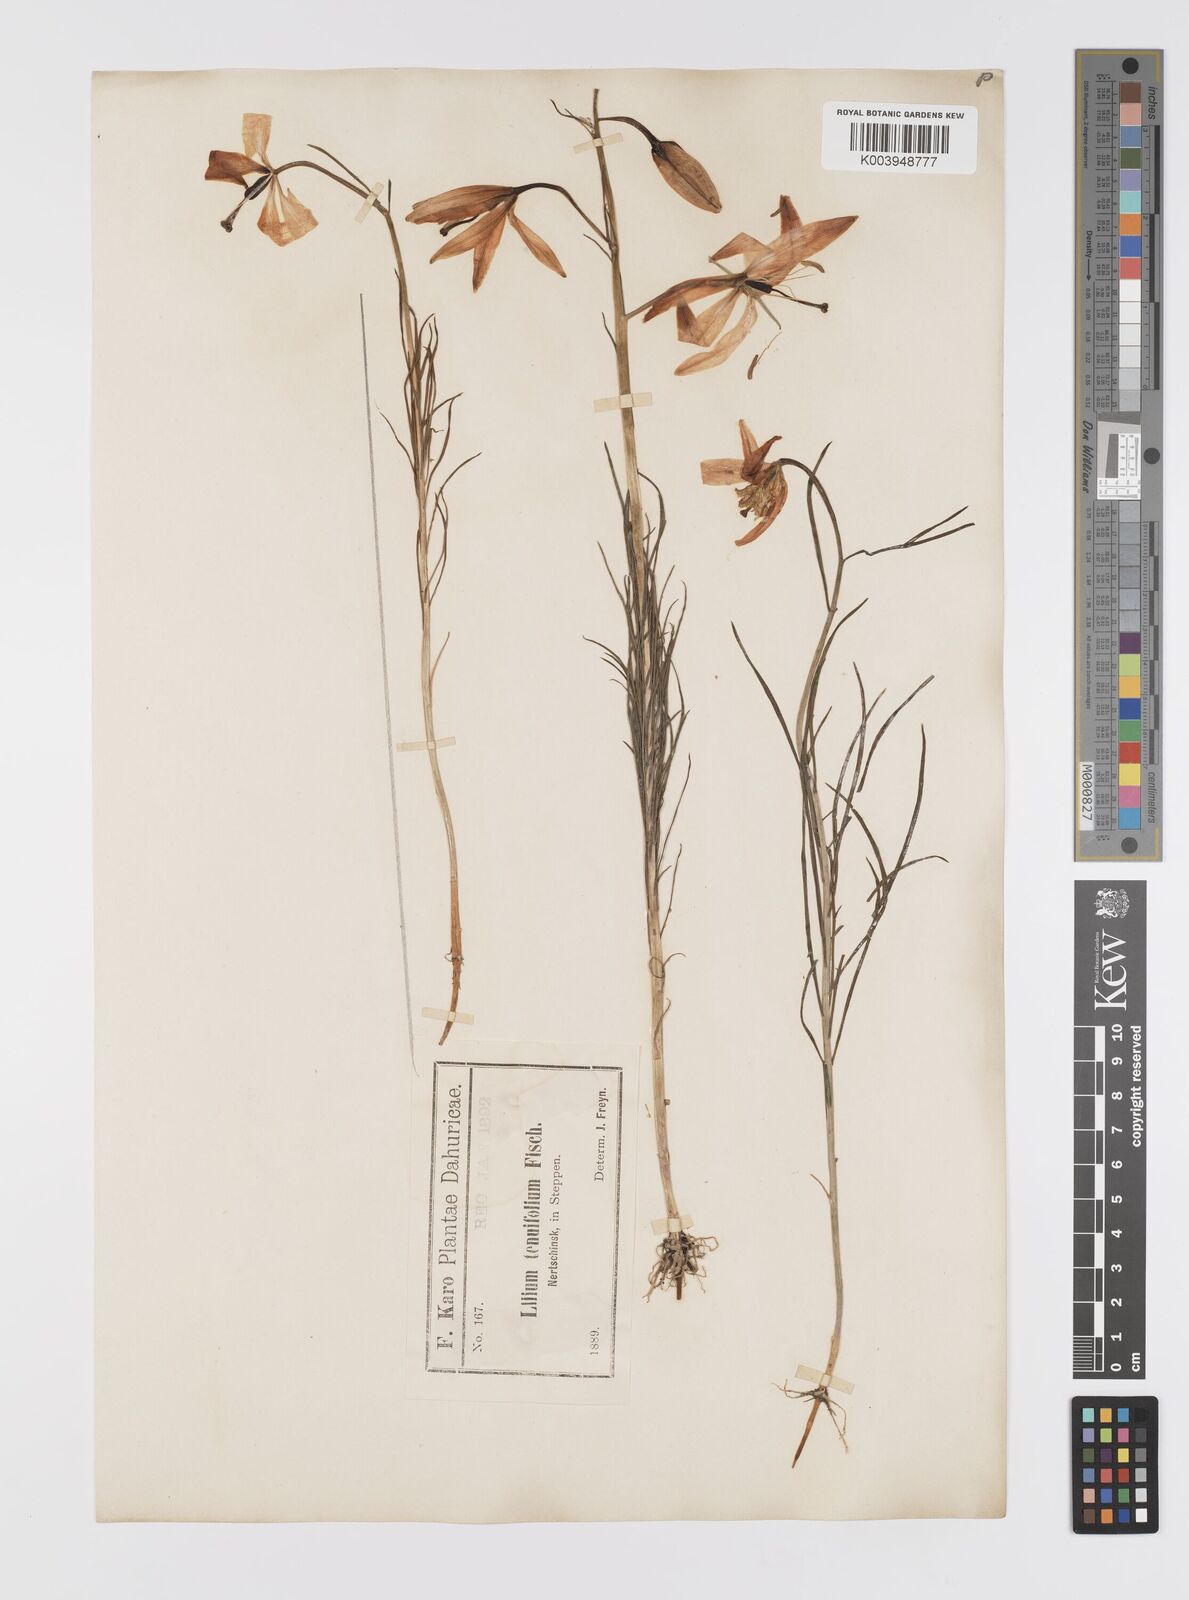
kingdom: Plantae
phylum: Tracheophyta
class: Liliopsida
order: Liliales
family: Liliaceae
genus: Lilium
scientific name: Lilium pumilum
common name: Coral lily
